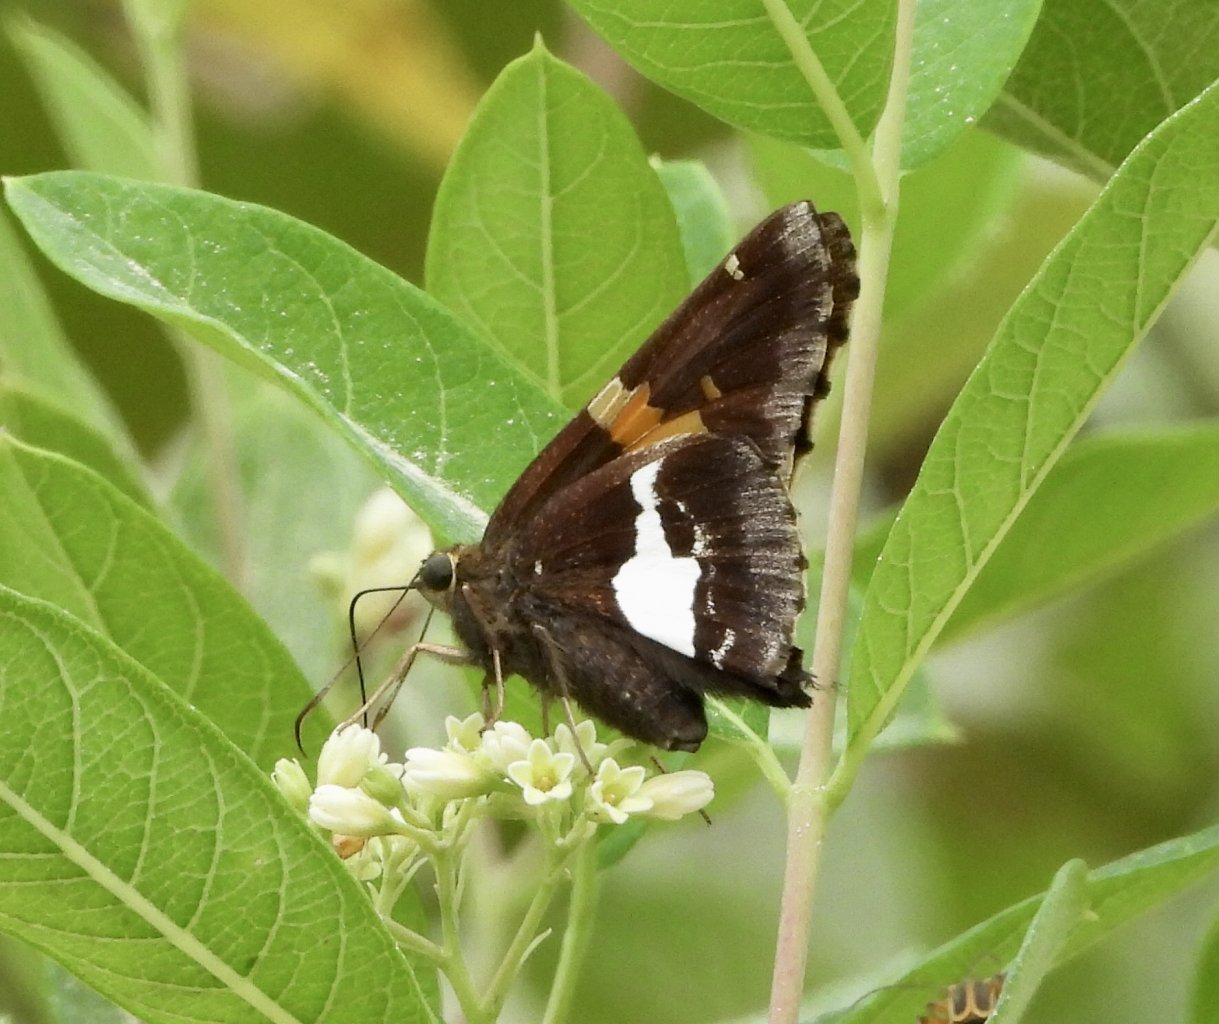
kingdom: Animalia
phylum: Arthropoda
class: Insecta
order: Lepidoptera
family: Hesperiidae
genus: Epargyreus
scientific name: Epargyreus clarus
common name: Silver-spotted Skipper
